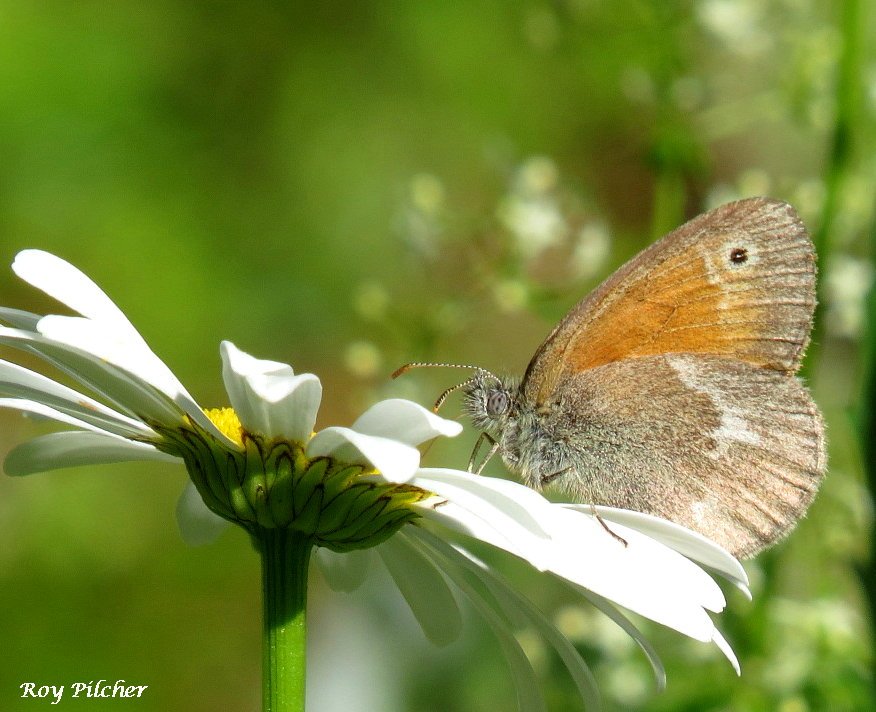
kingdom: Animalia
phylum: Arthropoda
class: Insecta
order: Lepidoptera
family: Nymphalidae
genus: Coenonympha
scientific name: Coenonympha tullia
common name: Large Heath
